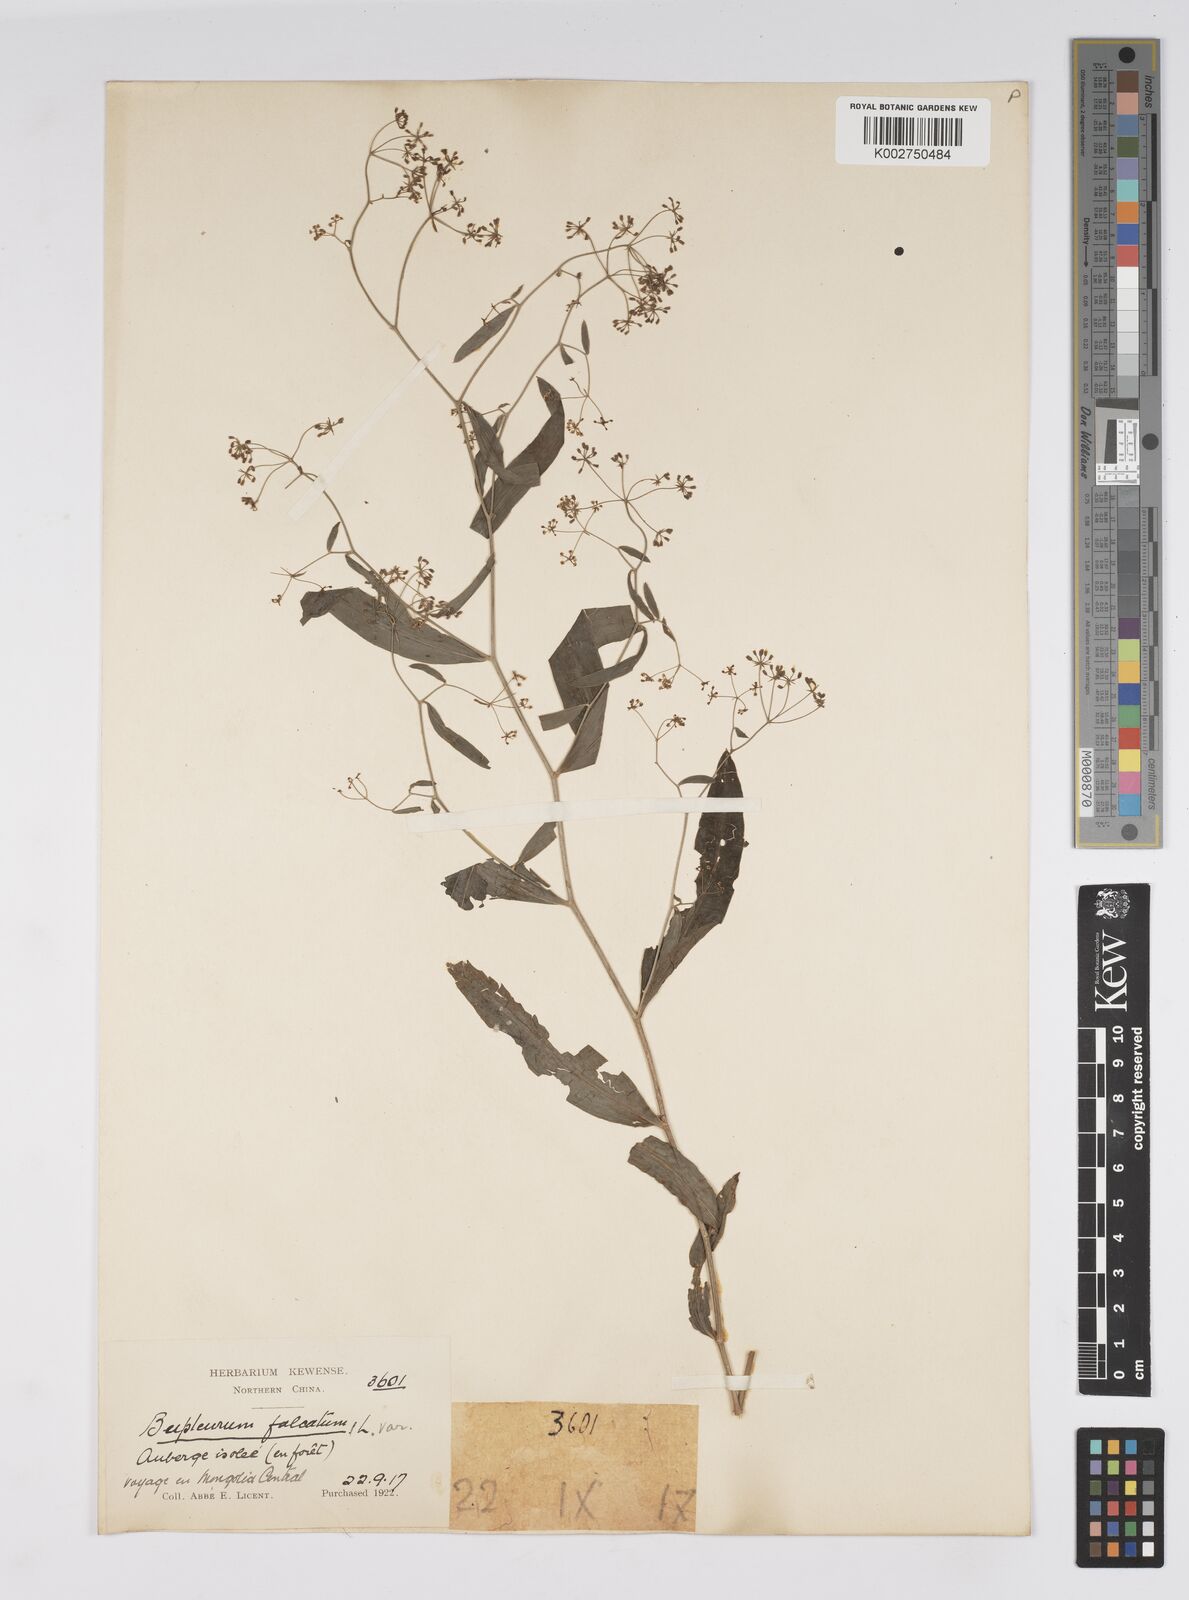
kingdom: Plantae
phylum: Tracheophyta
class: Magnoliopsida
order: Apiales
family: Apiaceae
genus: Bupleurum
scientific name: Bupleurum krylovianum
